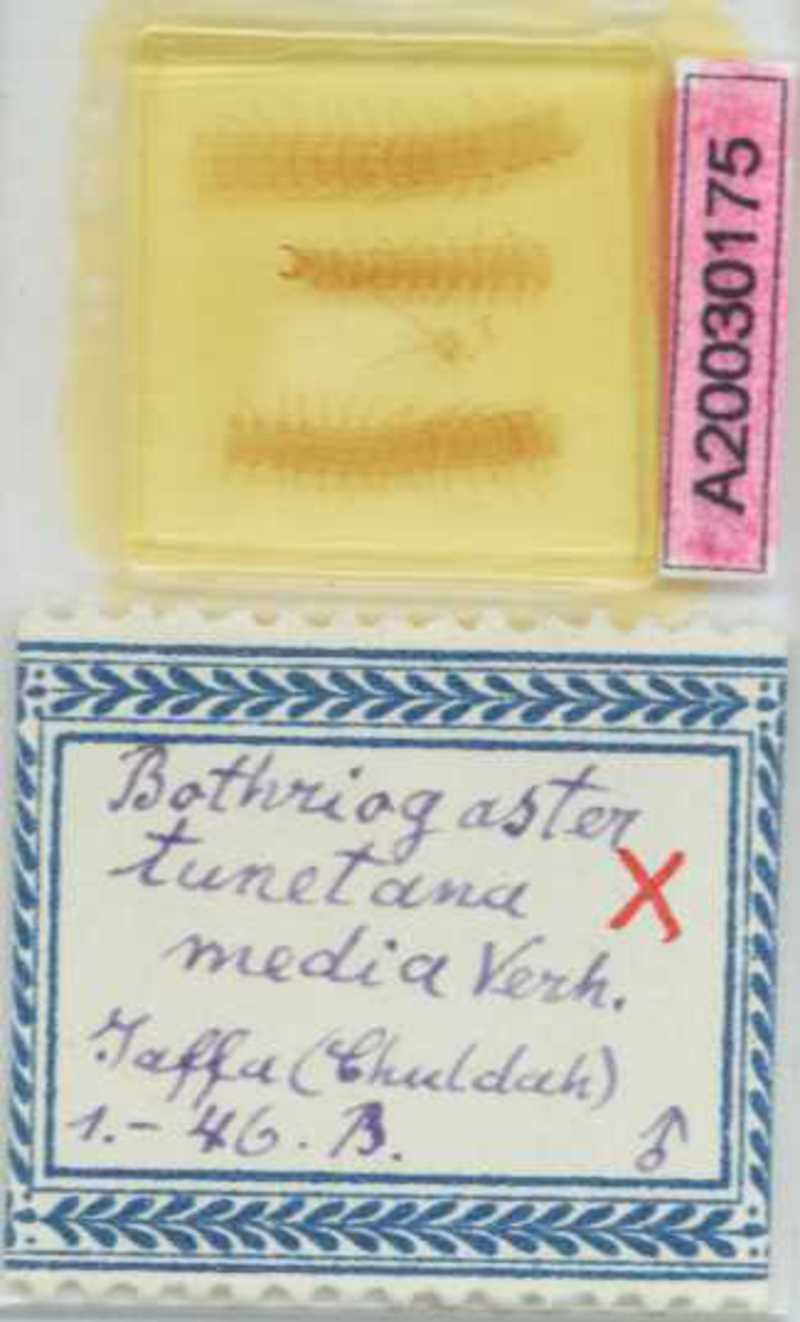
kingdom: Animalia
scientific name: Animalia
